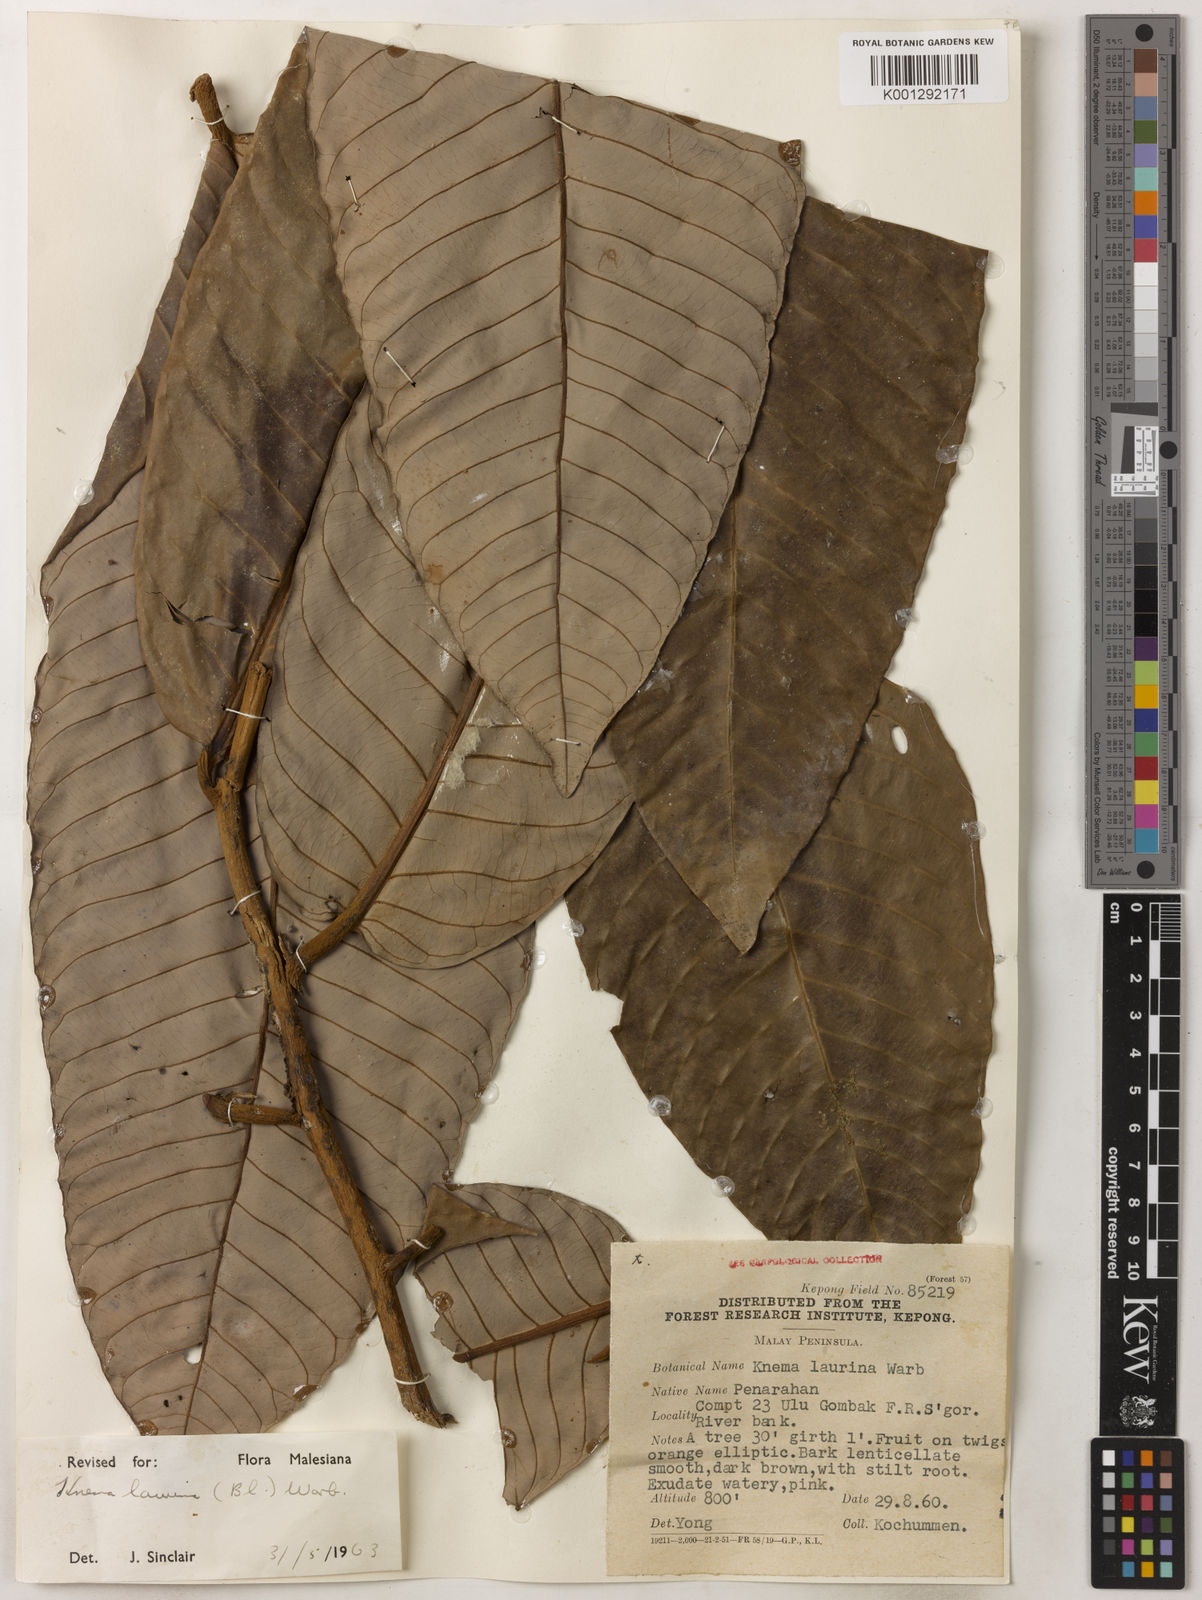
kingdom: Plantae
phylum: Tracheophyta
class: Magnoliopsida
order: Magnoliales
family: Myristicaceae
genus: Knema
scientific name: Knema laurina
